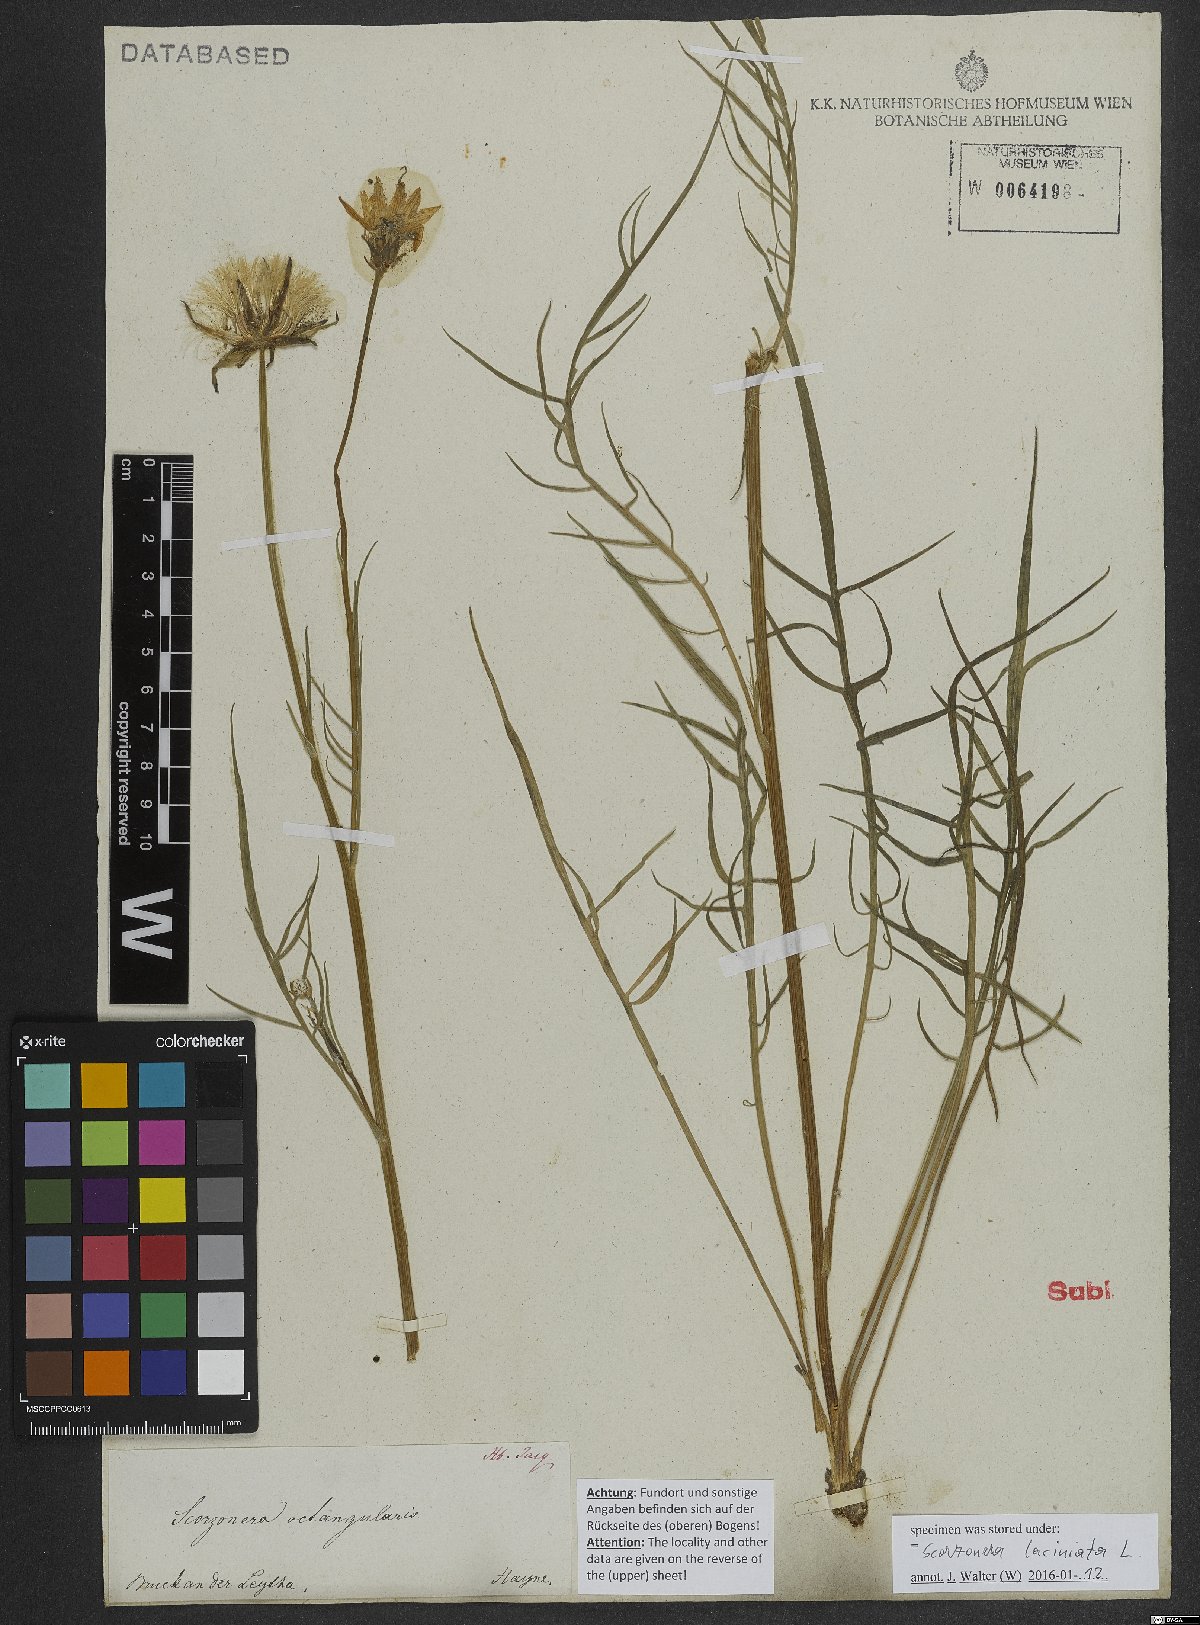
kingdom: Plantae
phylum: Tracheophyta
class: Magnoliopsida
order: Asterales
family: Asteraceae
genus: Scorzonera
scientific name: Scorzonera cana
